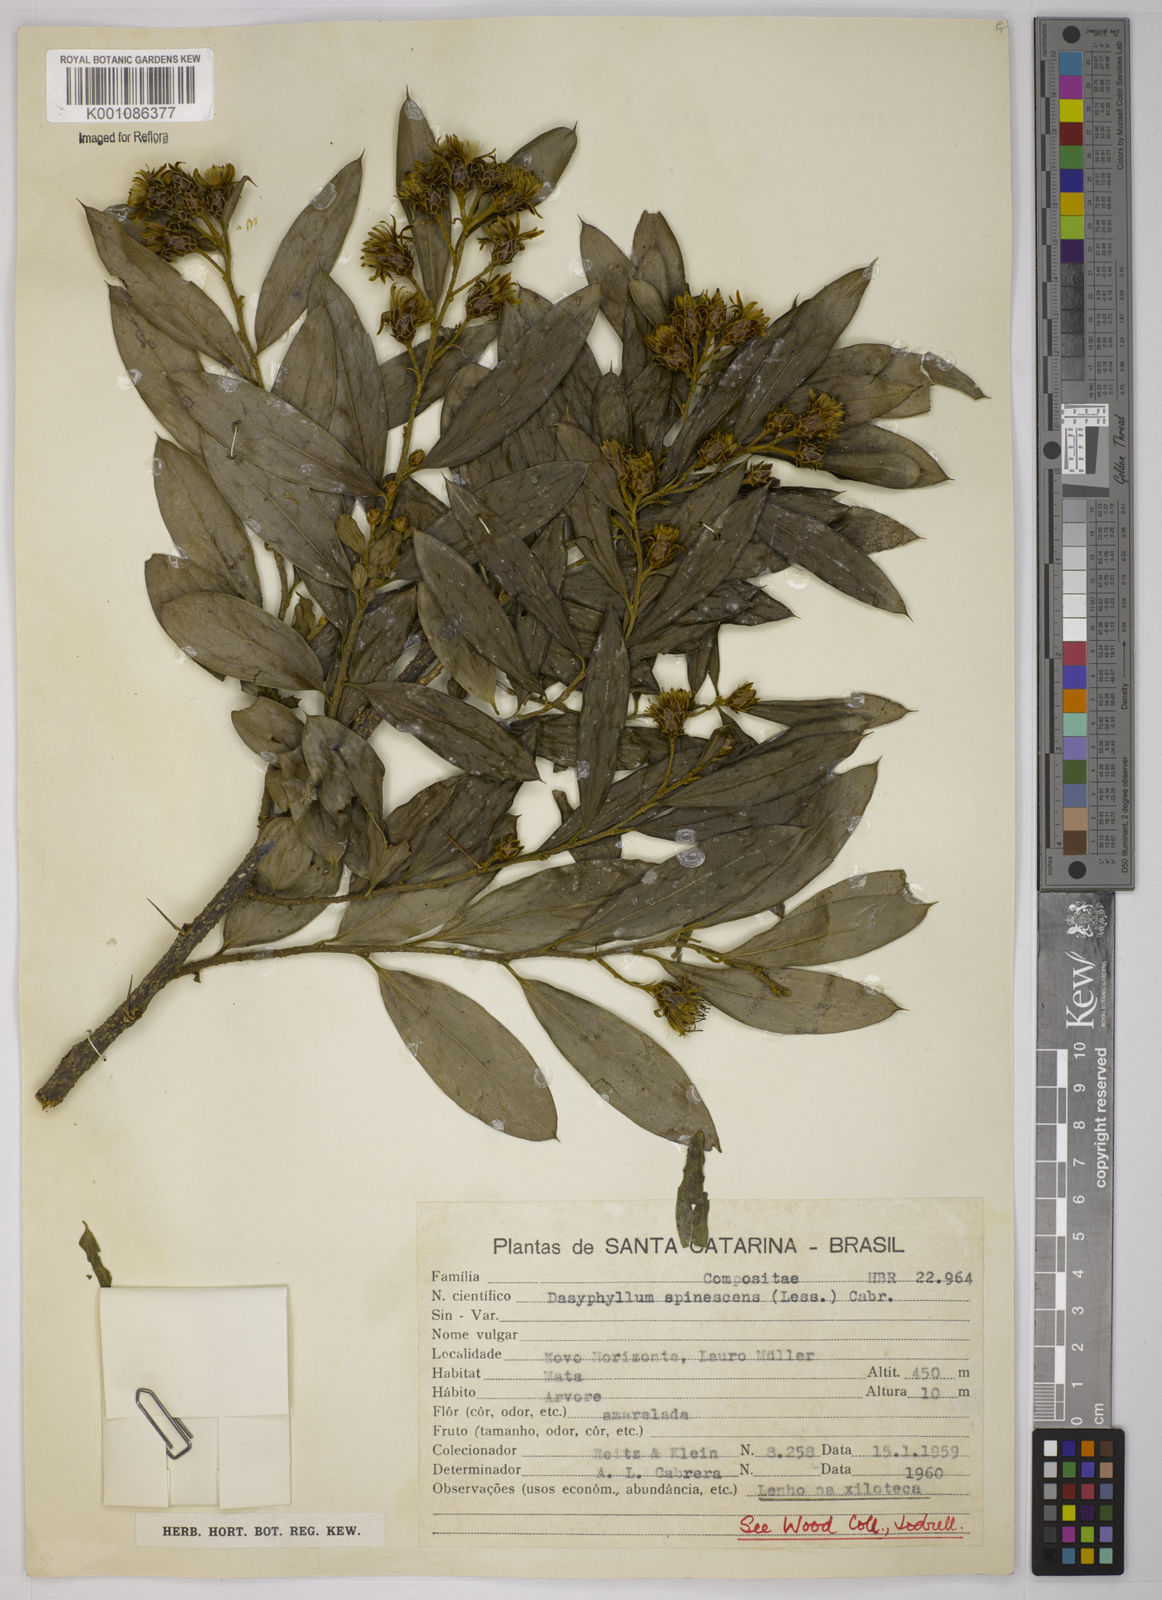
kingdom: Plantae
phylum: Tracheophyta
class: Magnoliopsida
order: Asterales
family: Asteraceae
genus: Dasyphyllum
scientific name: Dasyphyllum spinescens
